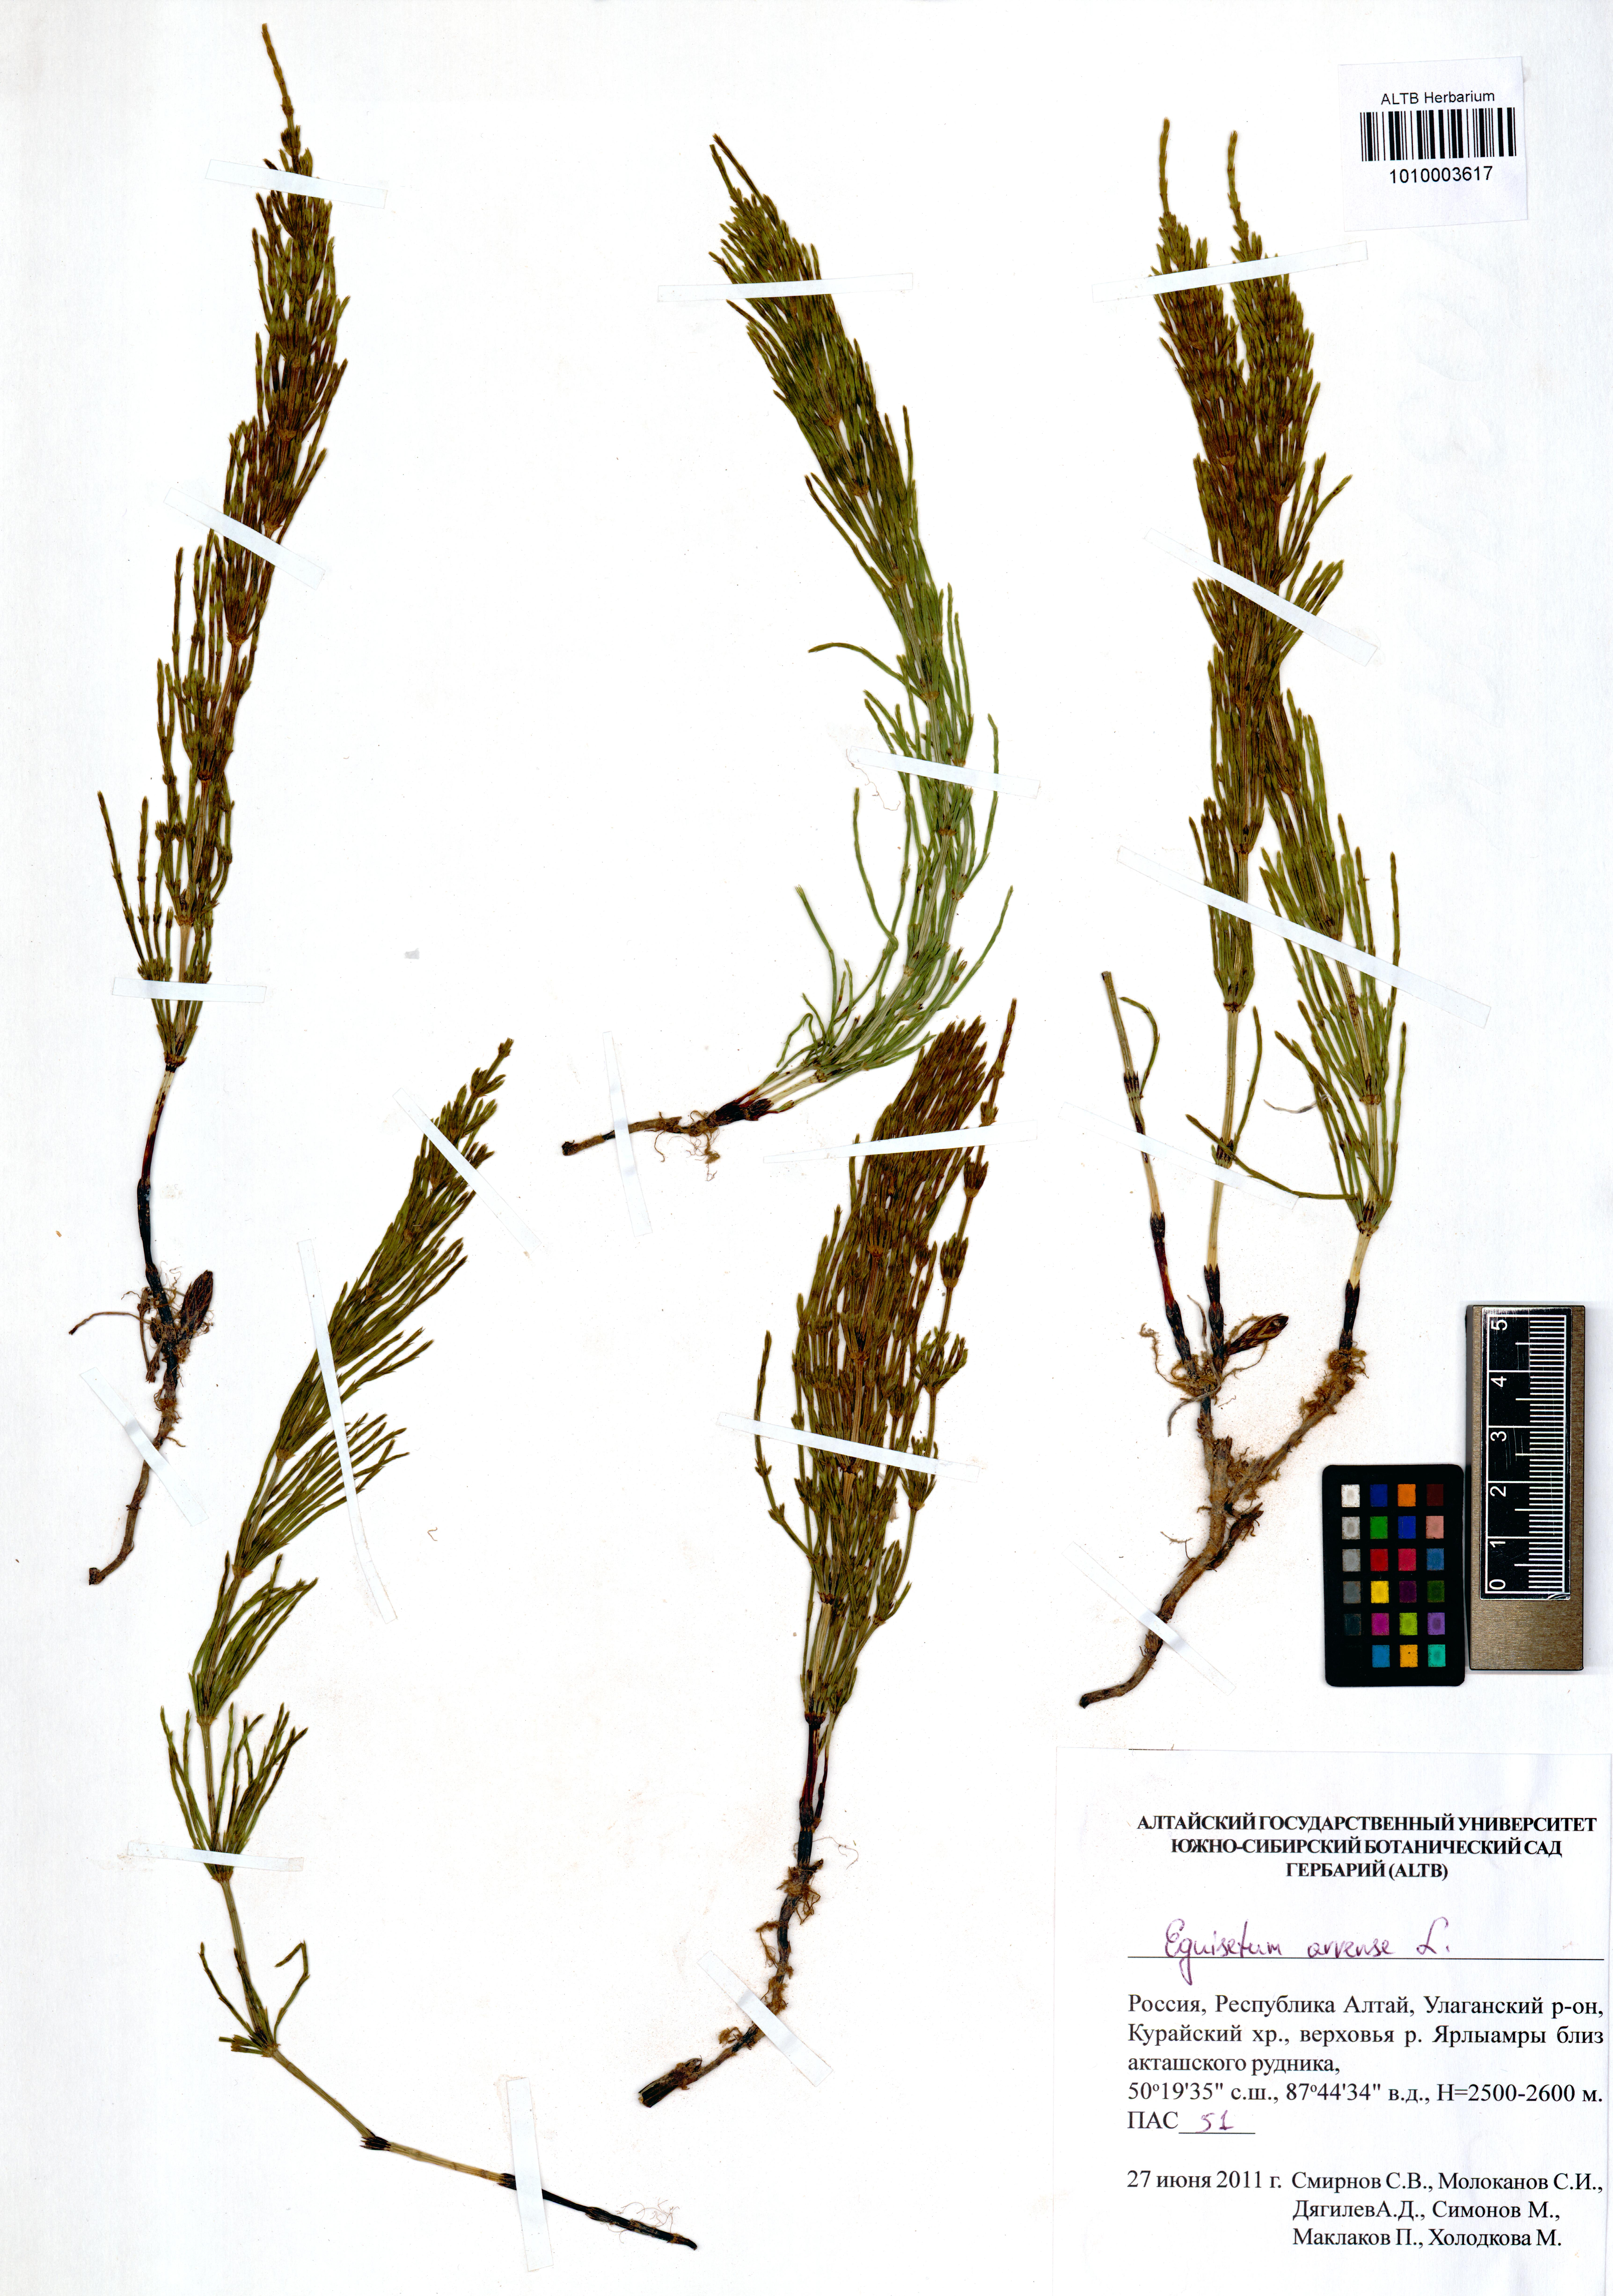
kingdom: Plantae
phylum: Tracheophyta
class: Polypodiopsida
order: Equisetales
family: Equisetaceae
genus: Equisetum
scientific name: Equisetum arvense
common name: Field horsetail
